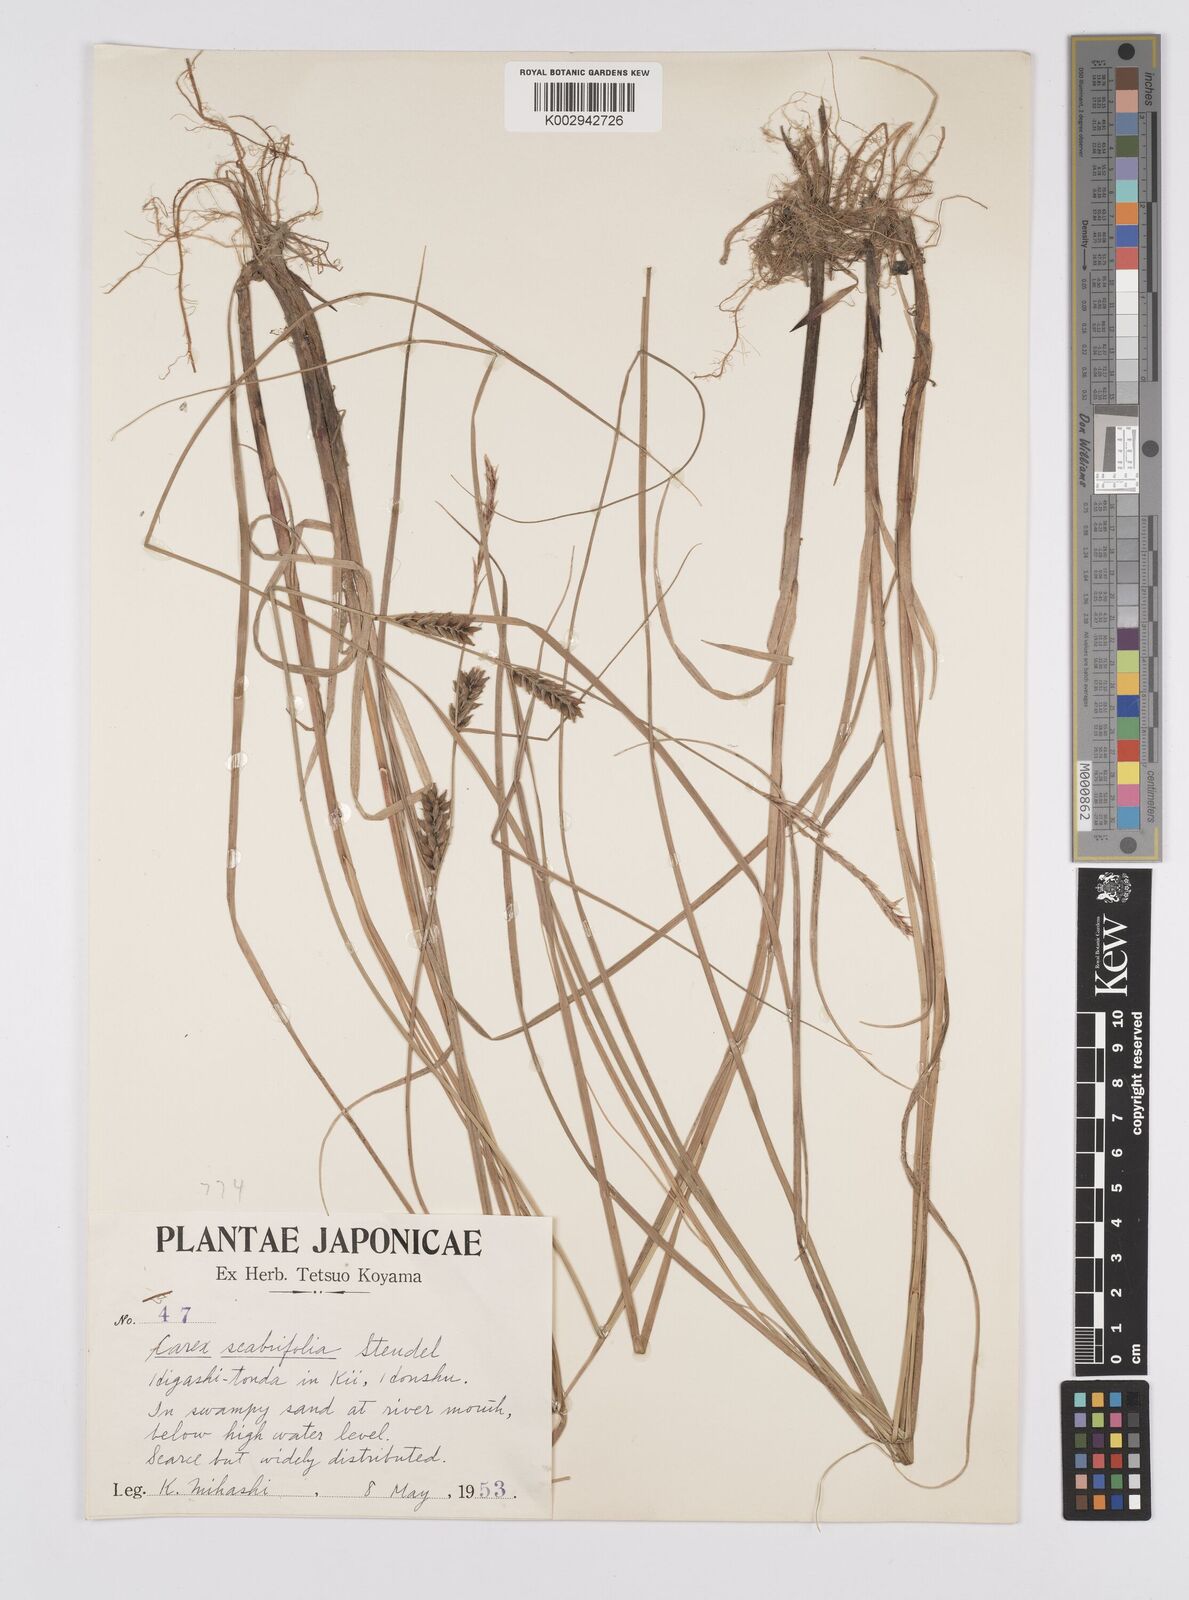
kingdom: Plantae
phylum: Tracheophyta
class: Liliopsida
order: Poales
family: Cyperaceae
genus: Carex
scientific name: Carex scabrifolia
